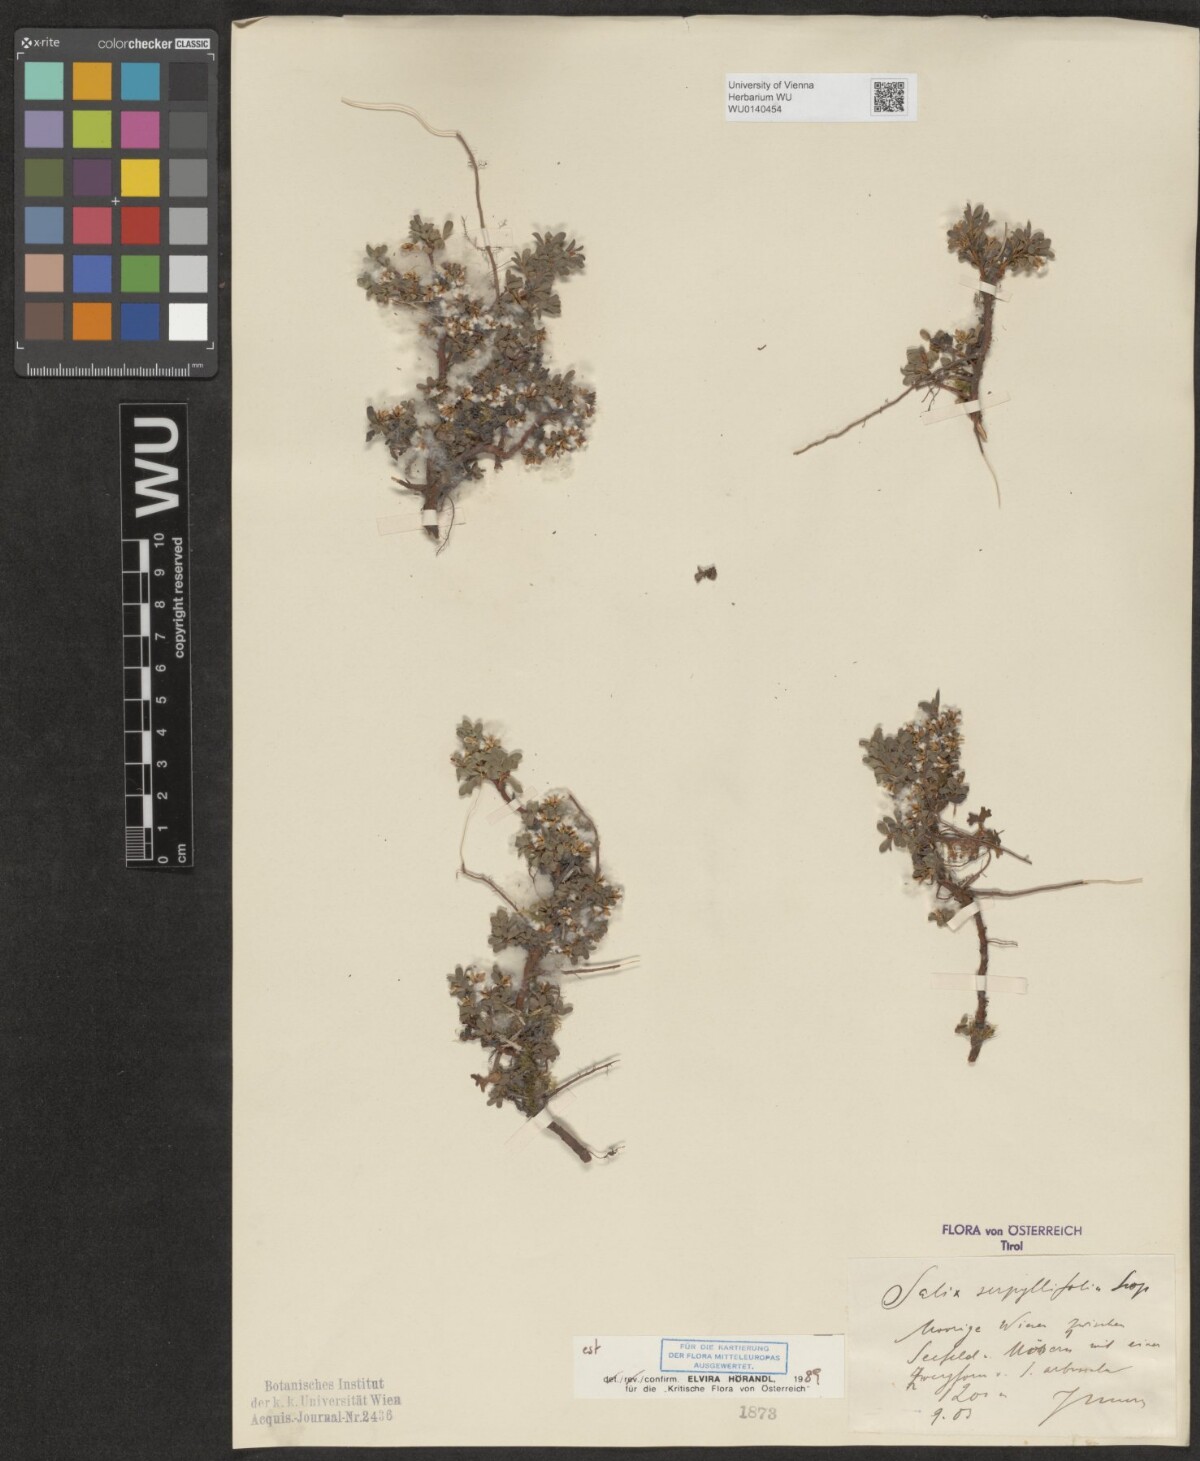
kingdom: Plantae
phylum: Tracheophyta
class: Magnoliopsida
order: Malpighiales
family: Salicaceae
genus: Salix
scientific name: Salix serpillifolia
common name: Thyme-leaf willow
